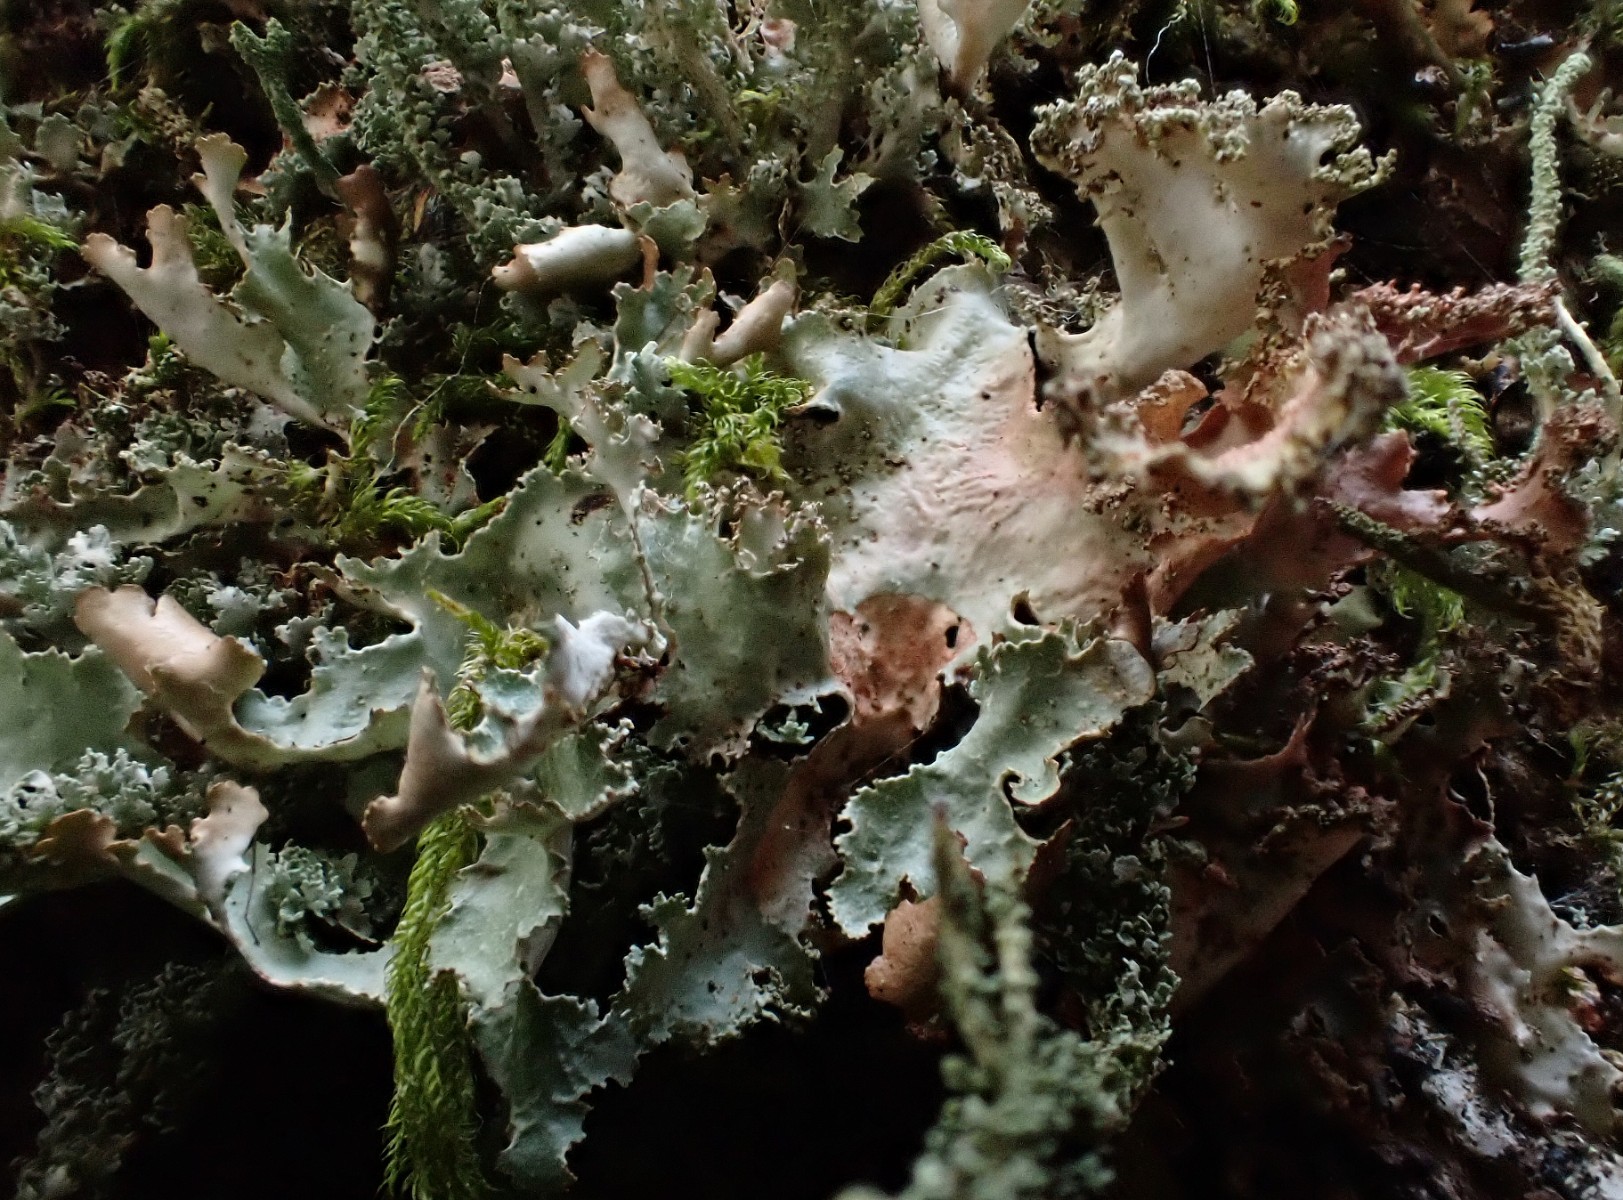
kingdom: Fungi
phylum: Ascomycota
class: Lecanoromycetes
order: Lecanorales
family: Parmeliaceae
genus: Platismatia
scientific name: Platismatia glauca
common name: blågrå papirlav
